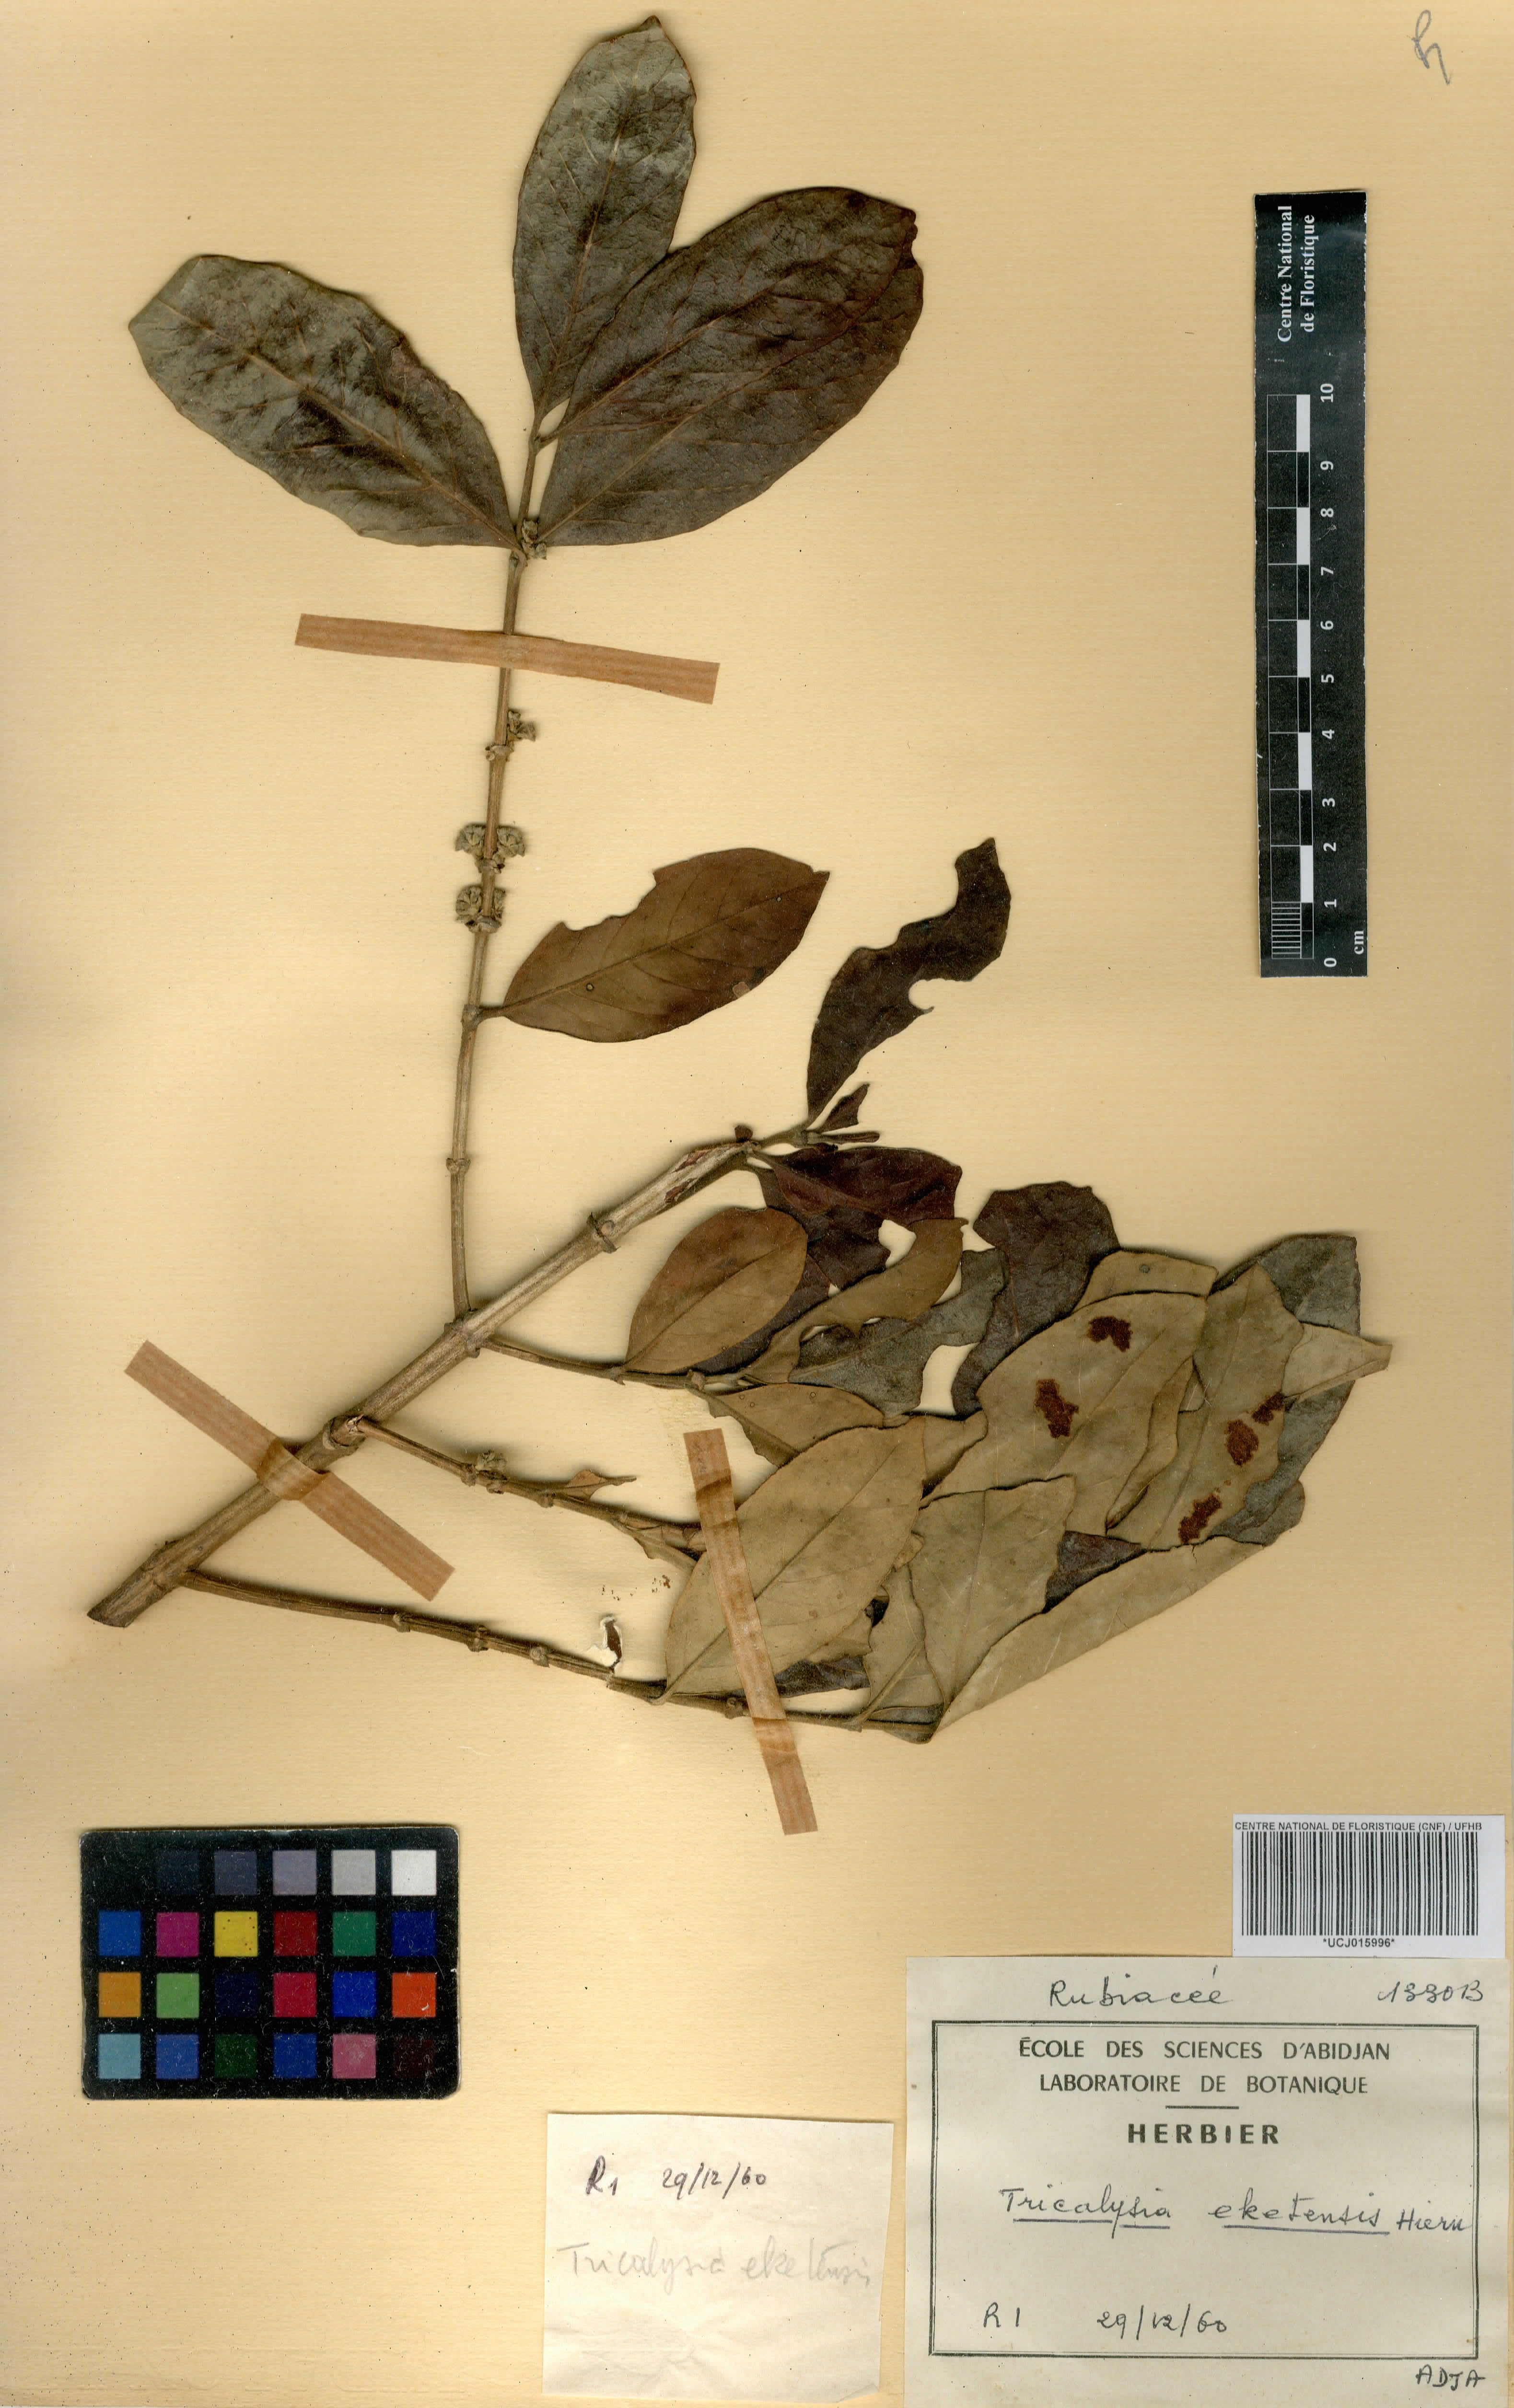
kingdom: Plantae
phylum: Tracheophyta
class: Magnoliopsida
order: Gentianales
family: Rubiaceae
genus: Tricalysia
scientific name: Tricalysia okelensis
